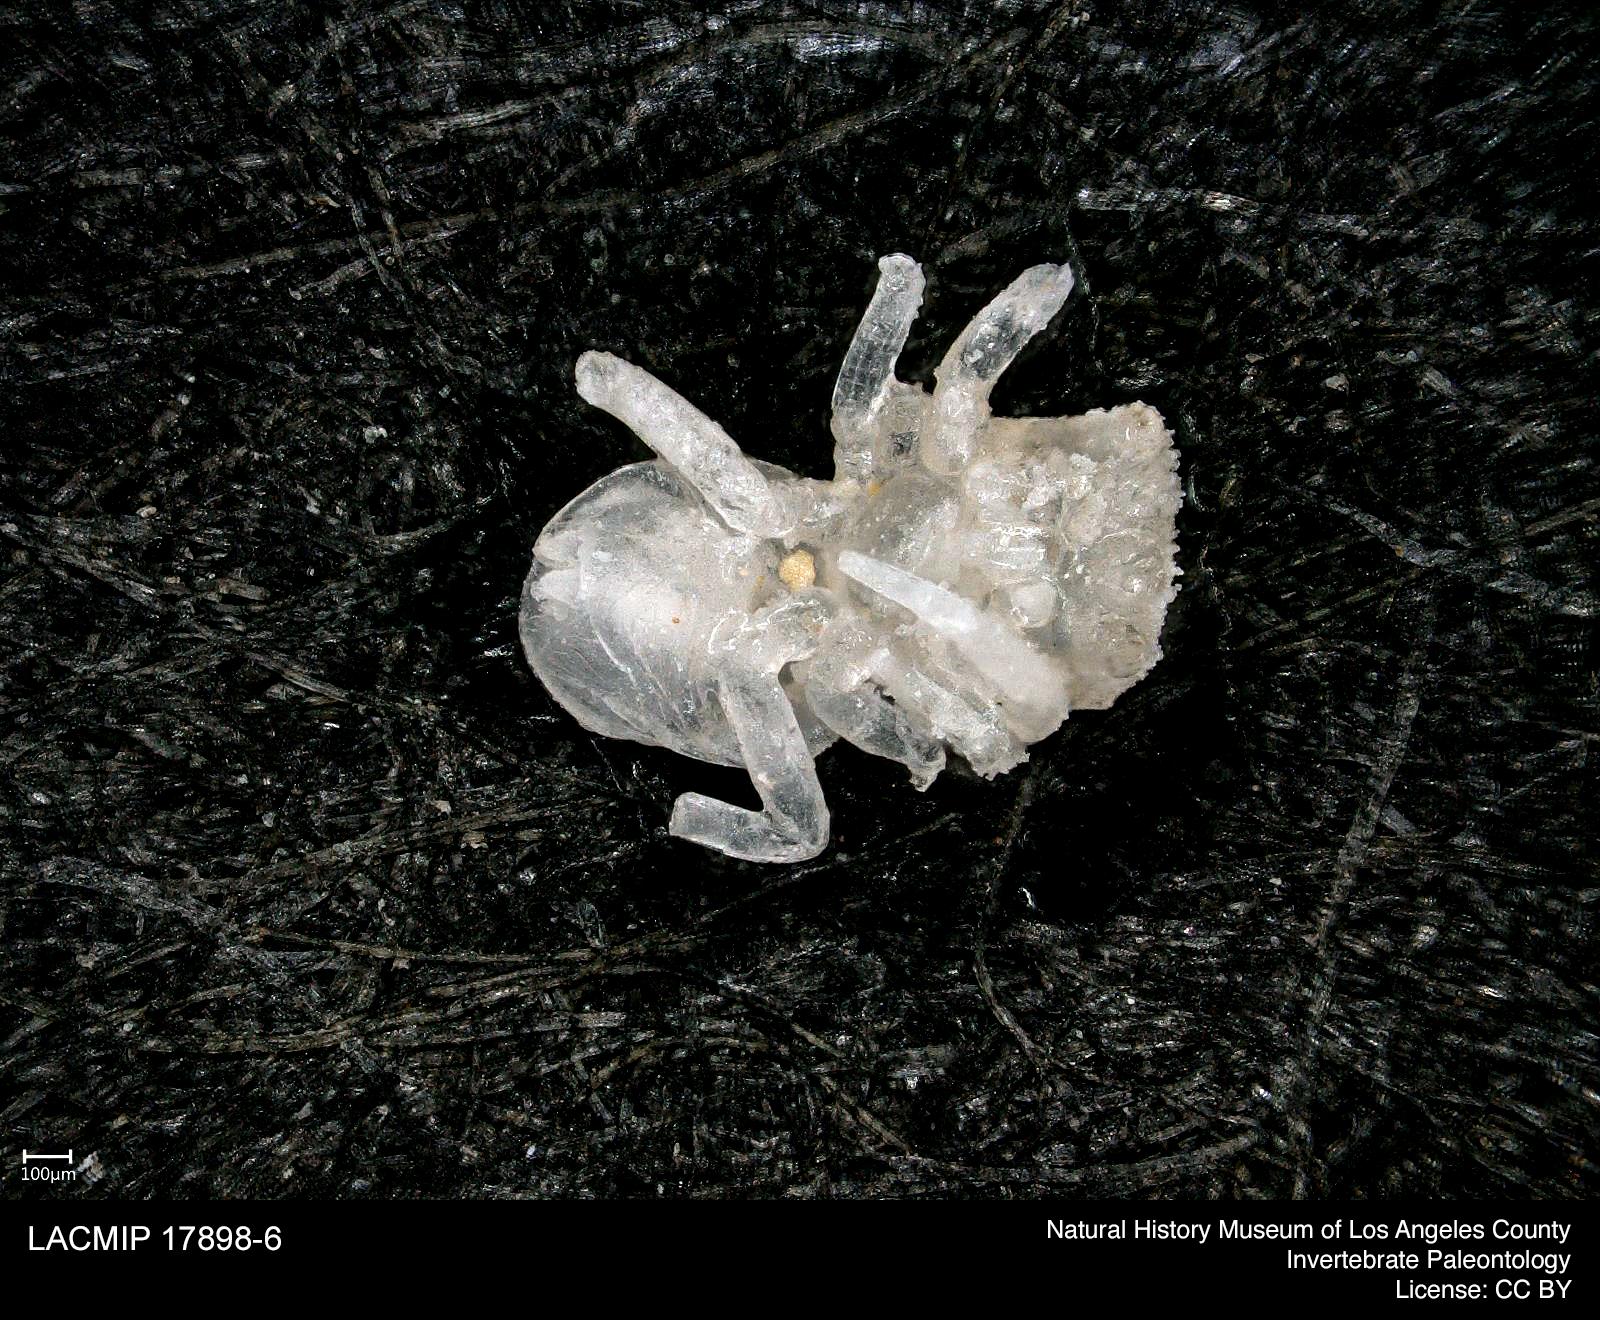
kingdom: Animalia
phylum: Arthropoda
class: Arachnida
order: Araneae
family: Salticidae
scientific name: Salticidae
